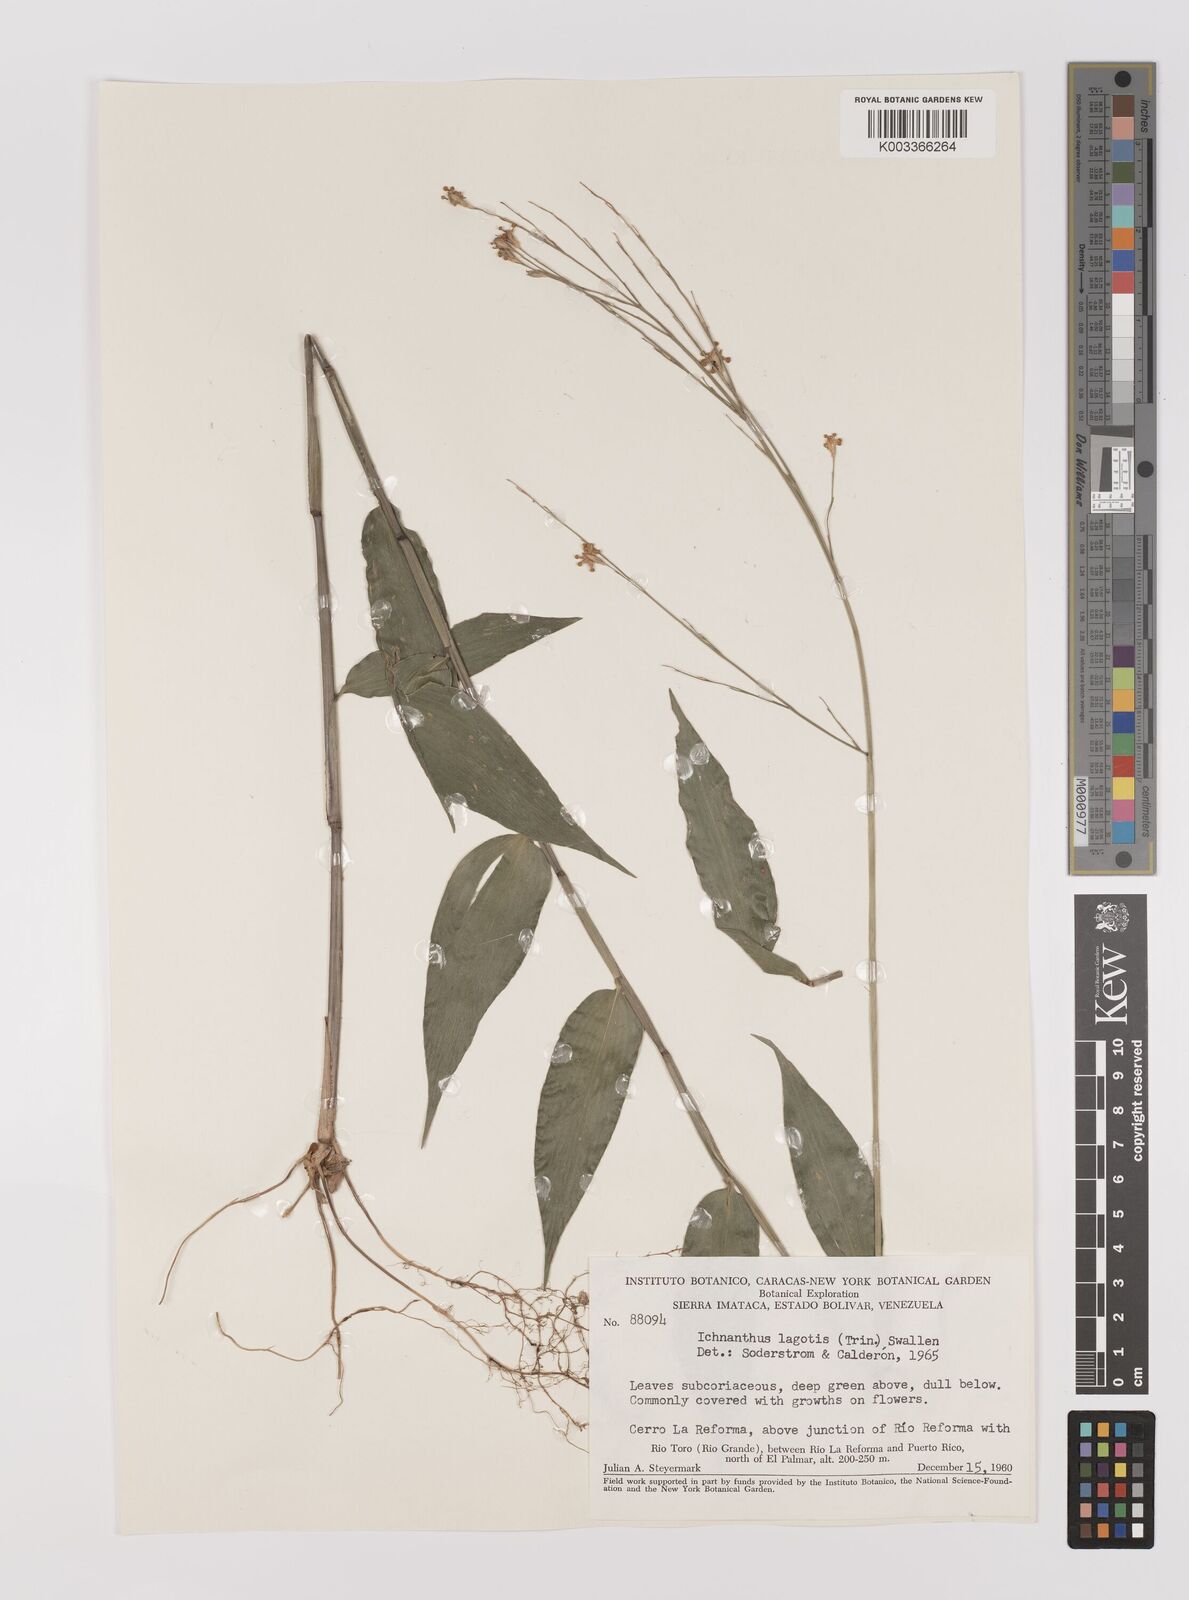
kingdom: Plantae
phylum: Tracheophyta
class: Liliopsida
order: Poales
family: Poaceae
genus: Ichnanthus
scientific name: Ichnanthus nemoralis
